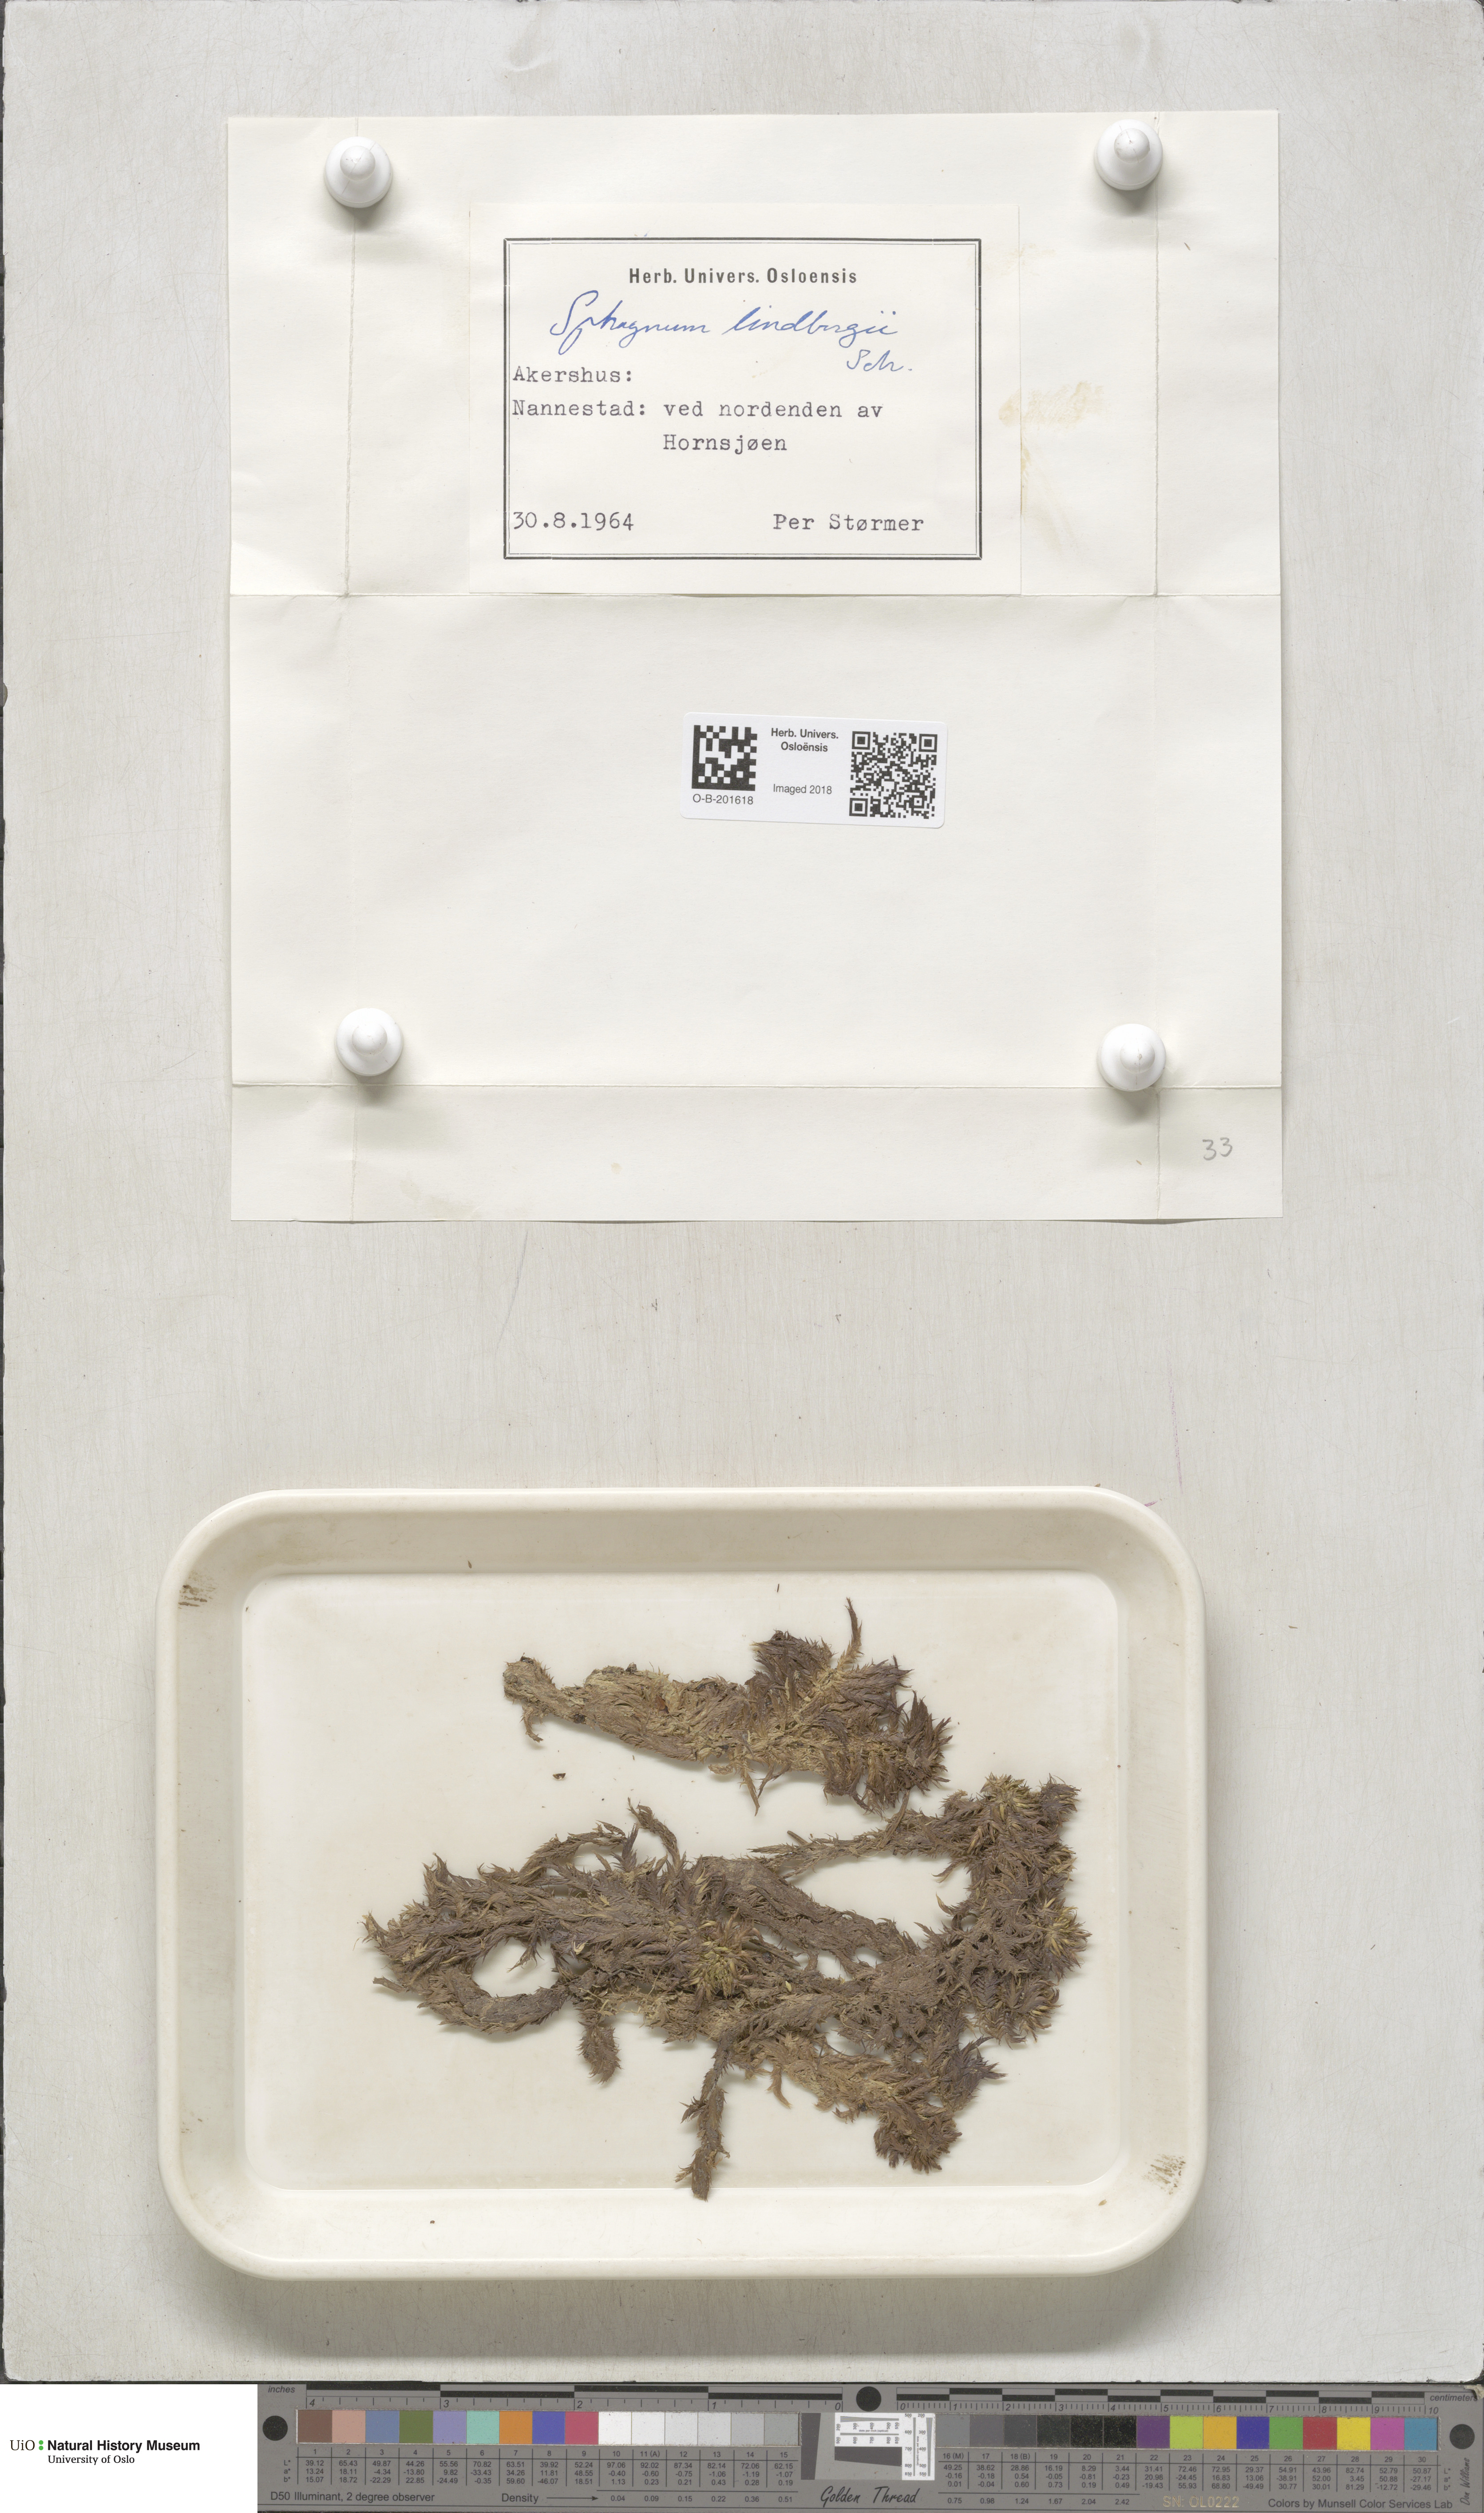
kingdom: Plantae
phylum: Bryophyta
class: Sphagnopsida
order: Sphagnales
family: Sphagnaceae
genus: Sphagnum
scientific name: Sphagnum lindbergii
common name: Lindberg's peat moss
